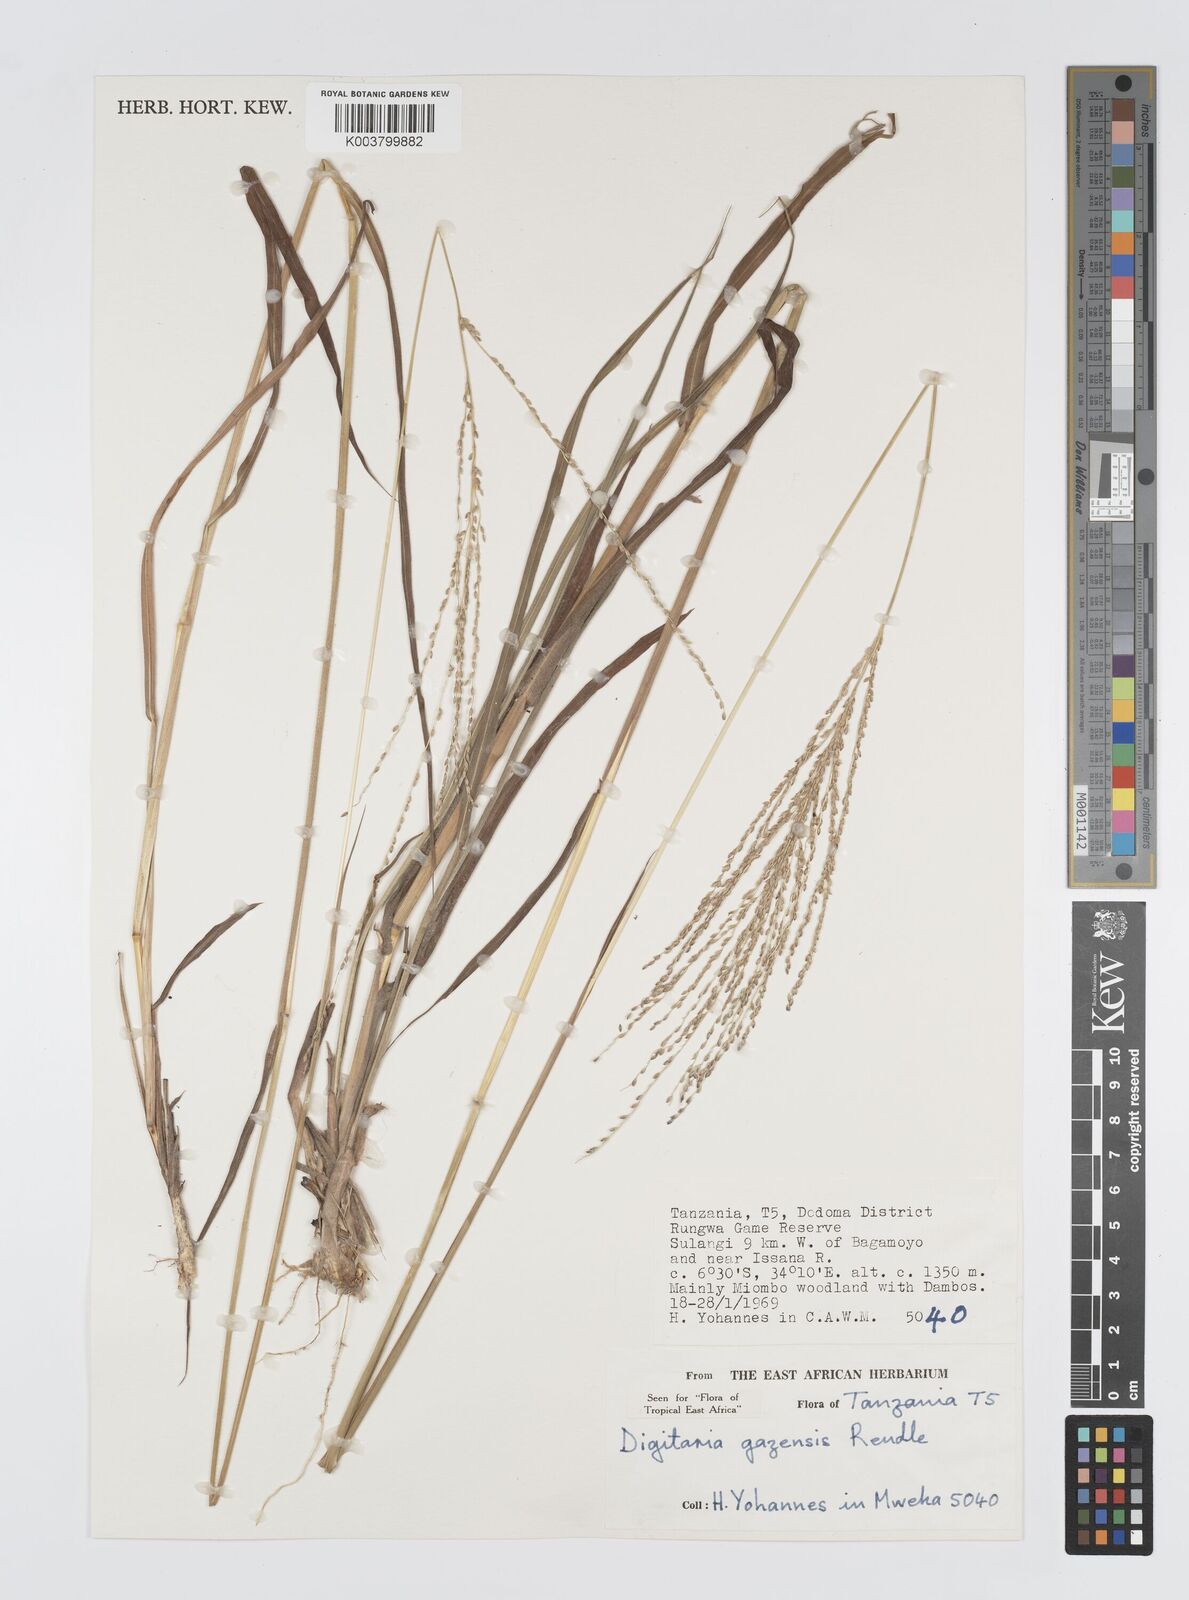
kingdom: Plantae
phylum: Tracheophyta
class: Liliopsida
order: Poales
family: Poaceae
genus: Digitaria
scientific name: Digitaria gazensis
